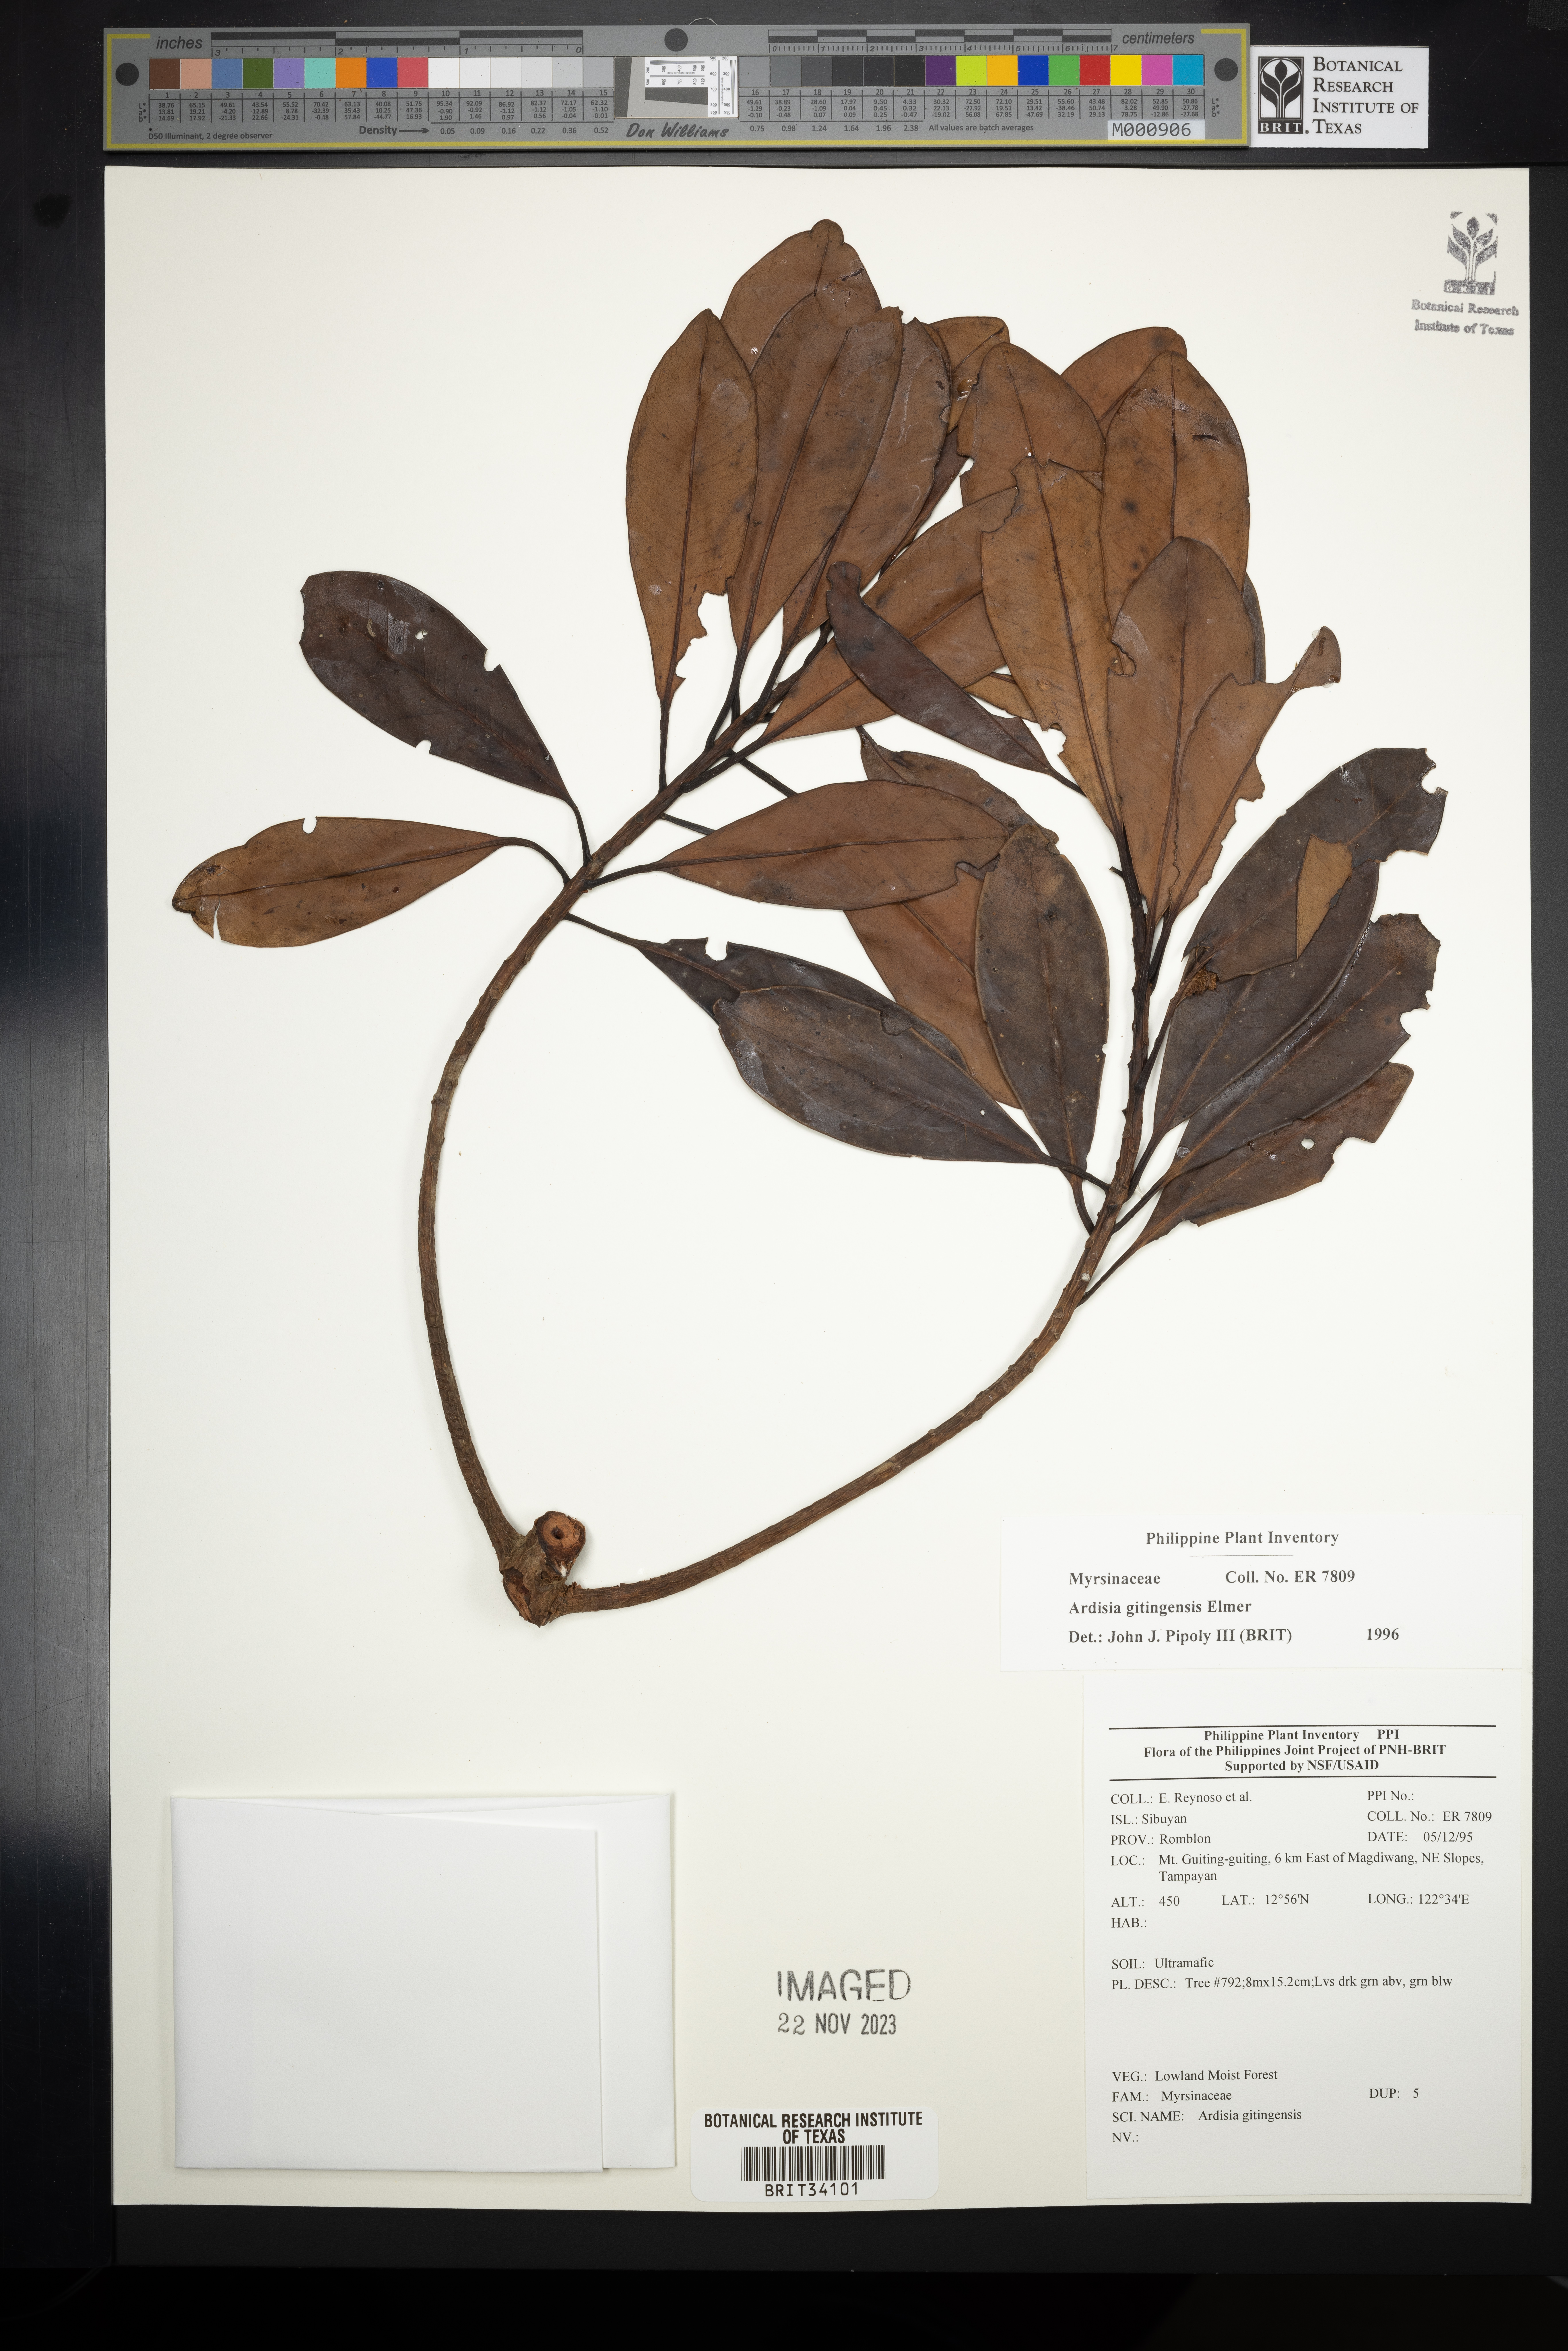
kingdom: Plantae
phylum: Tracheophyta
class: Magnoliopsida
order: Ericales
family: Primulaceae
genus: Ardisia
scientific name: Ardisia darlingii
